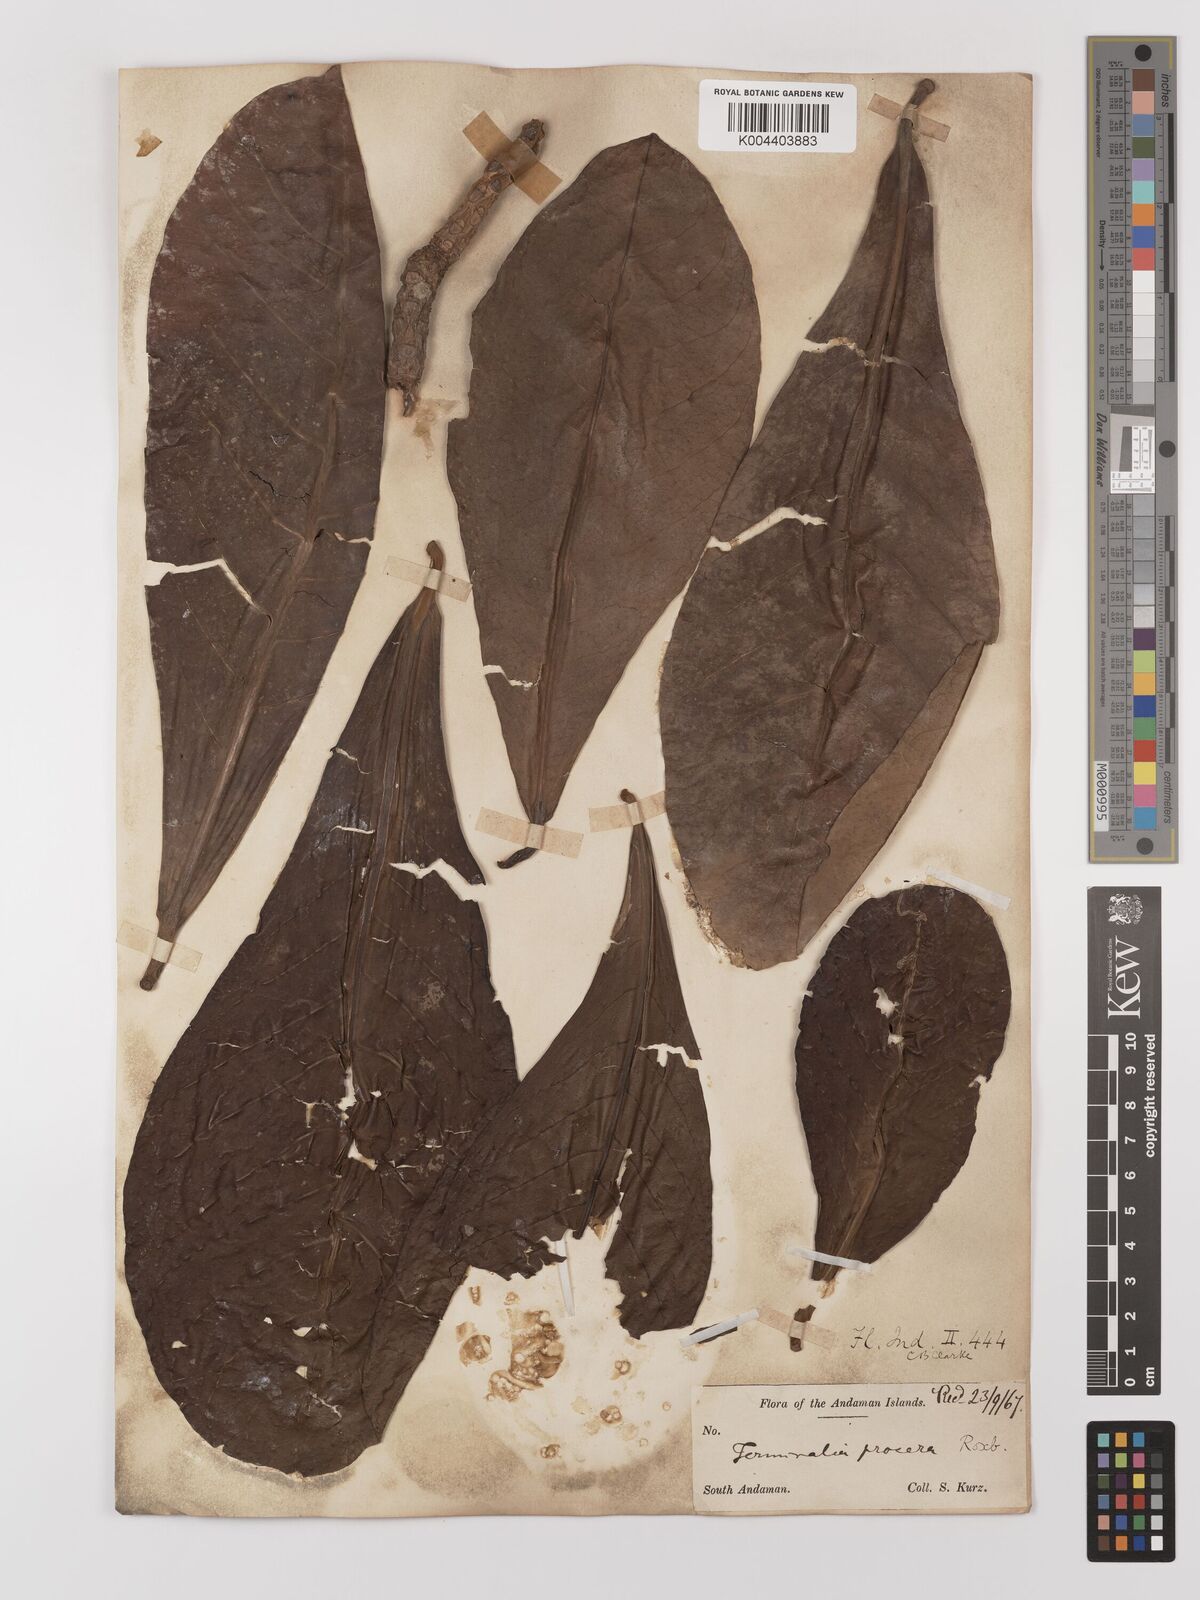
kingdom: Plantae
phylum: Tracheophyta
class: Magnoliopsida
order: Myrtales
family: Combretaceae
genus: Terminalia
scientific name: Terminalia procera
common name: White bombway
